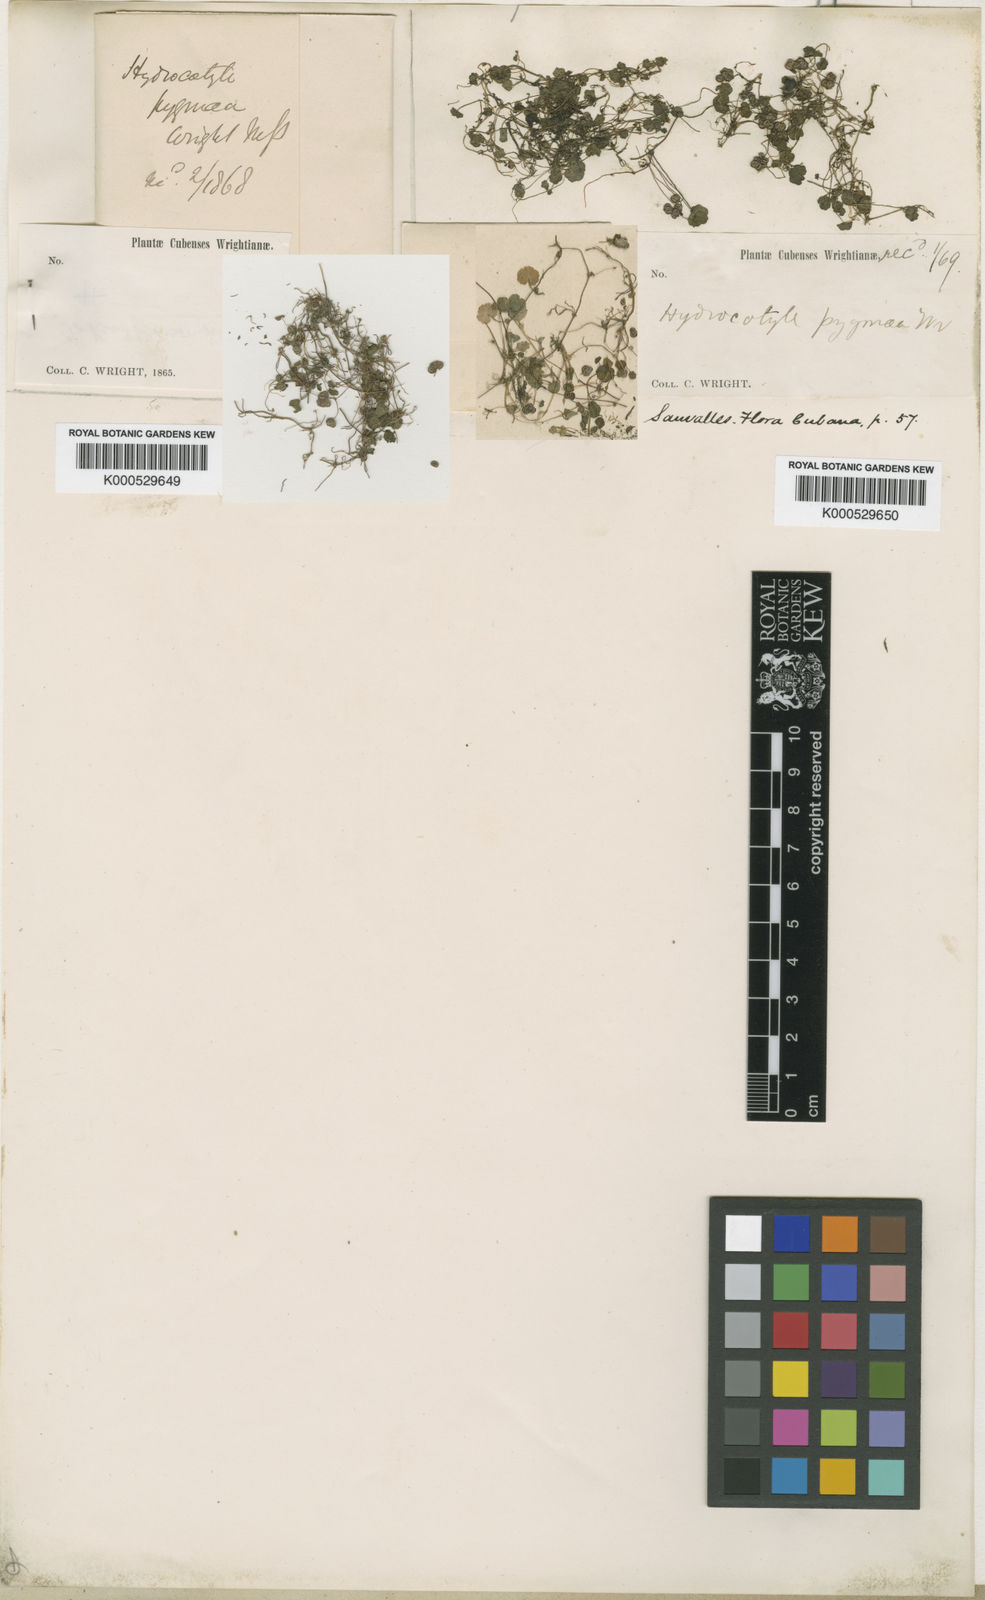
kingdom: Plantae
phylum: Tracheophyta
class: Magnoliopsida
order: Apiales
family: Araliaceae
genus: Hydrocotyle
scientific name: Hydrocotyle pygmaea
